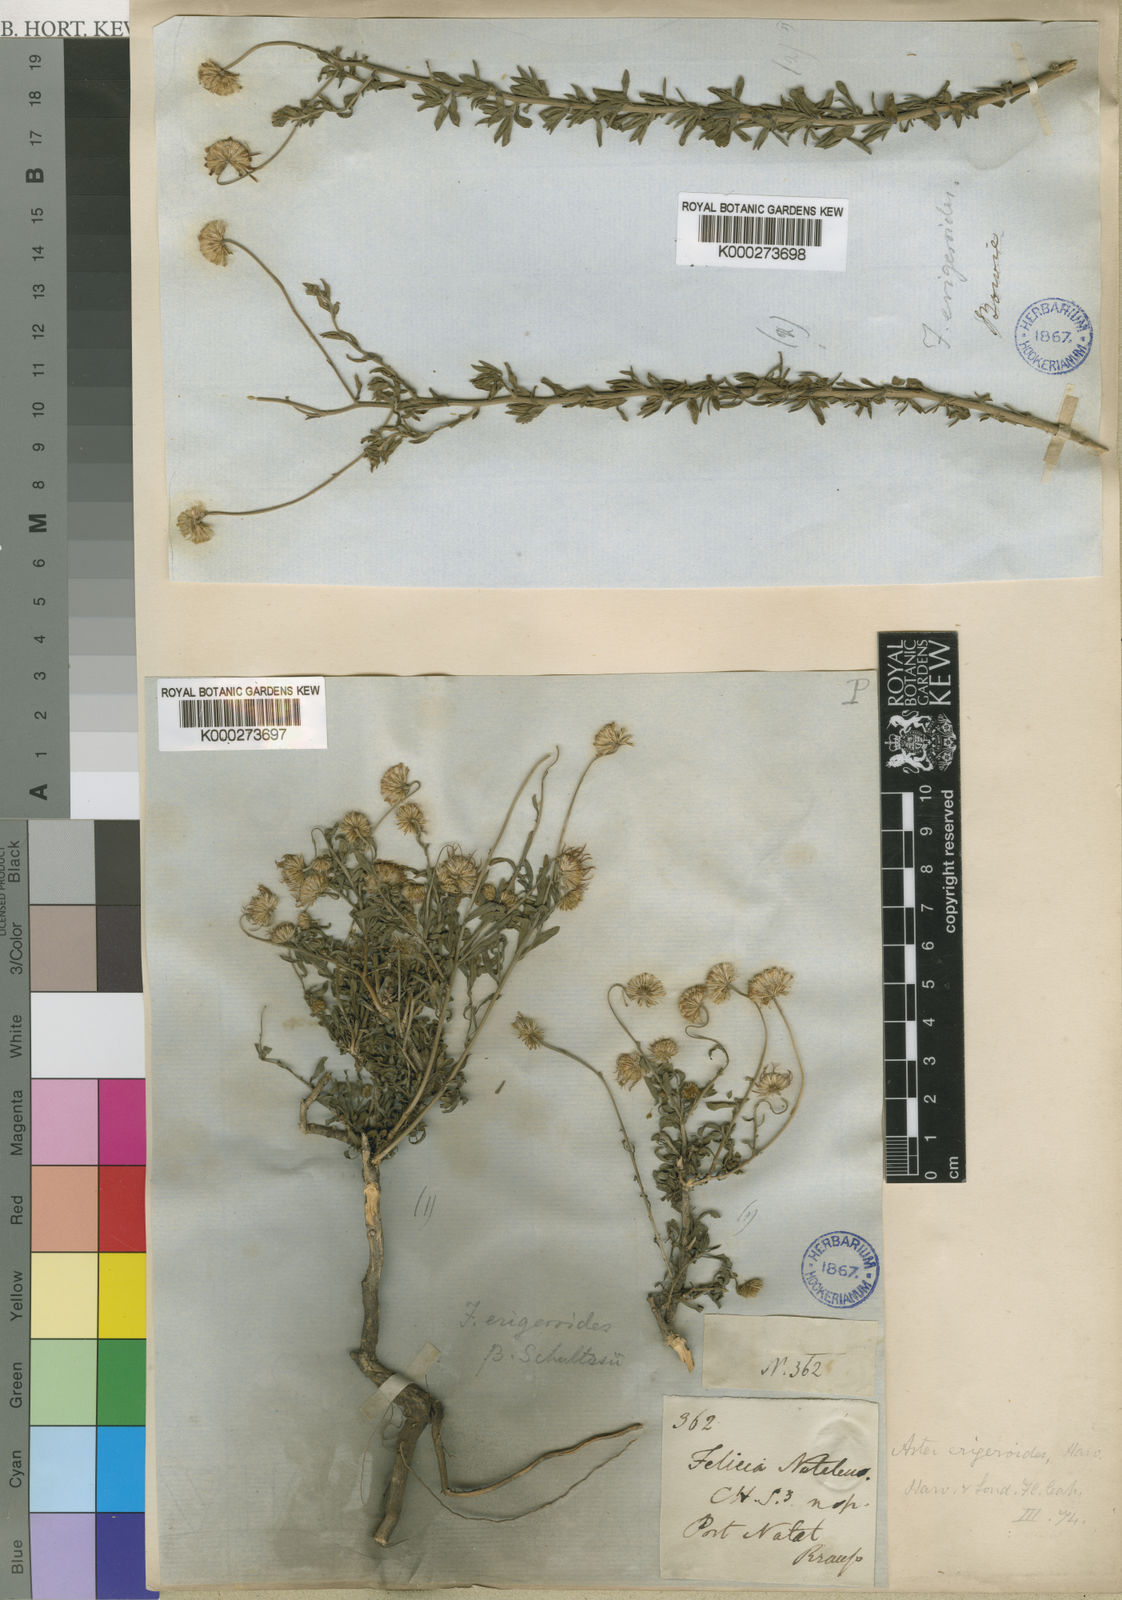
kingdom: Plantae
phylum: Tracheophyta
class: Magnoliopsida
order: Asterales
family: Asteraceae
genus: Felicia
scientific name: Felicia erigeroides
